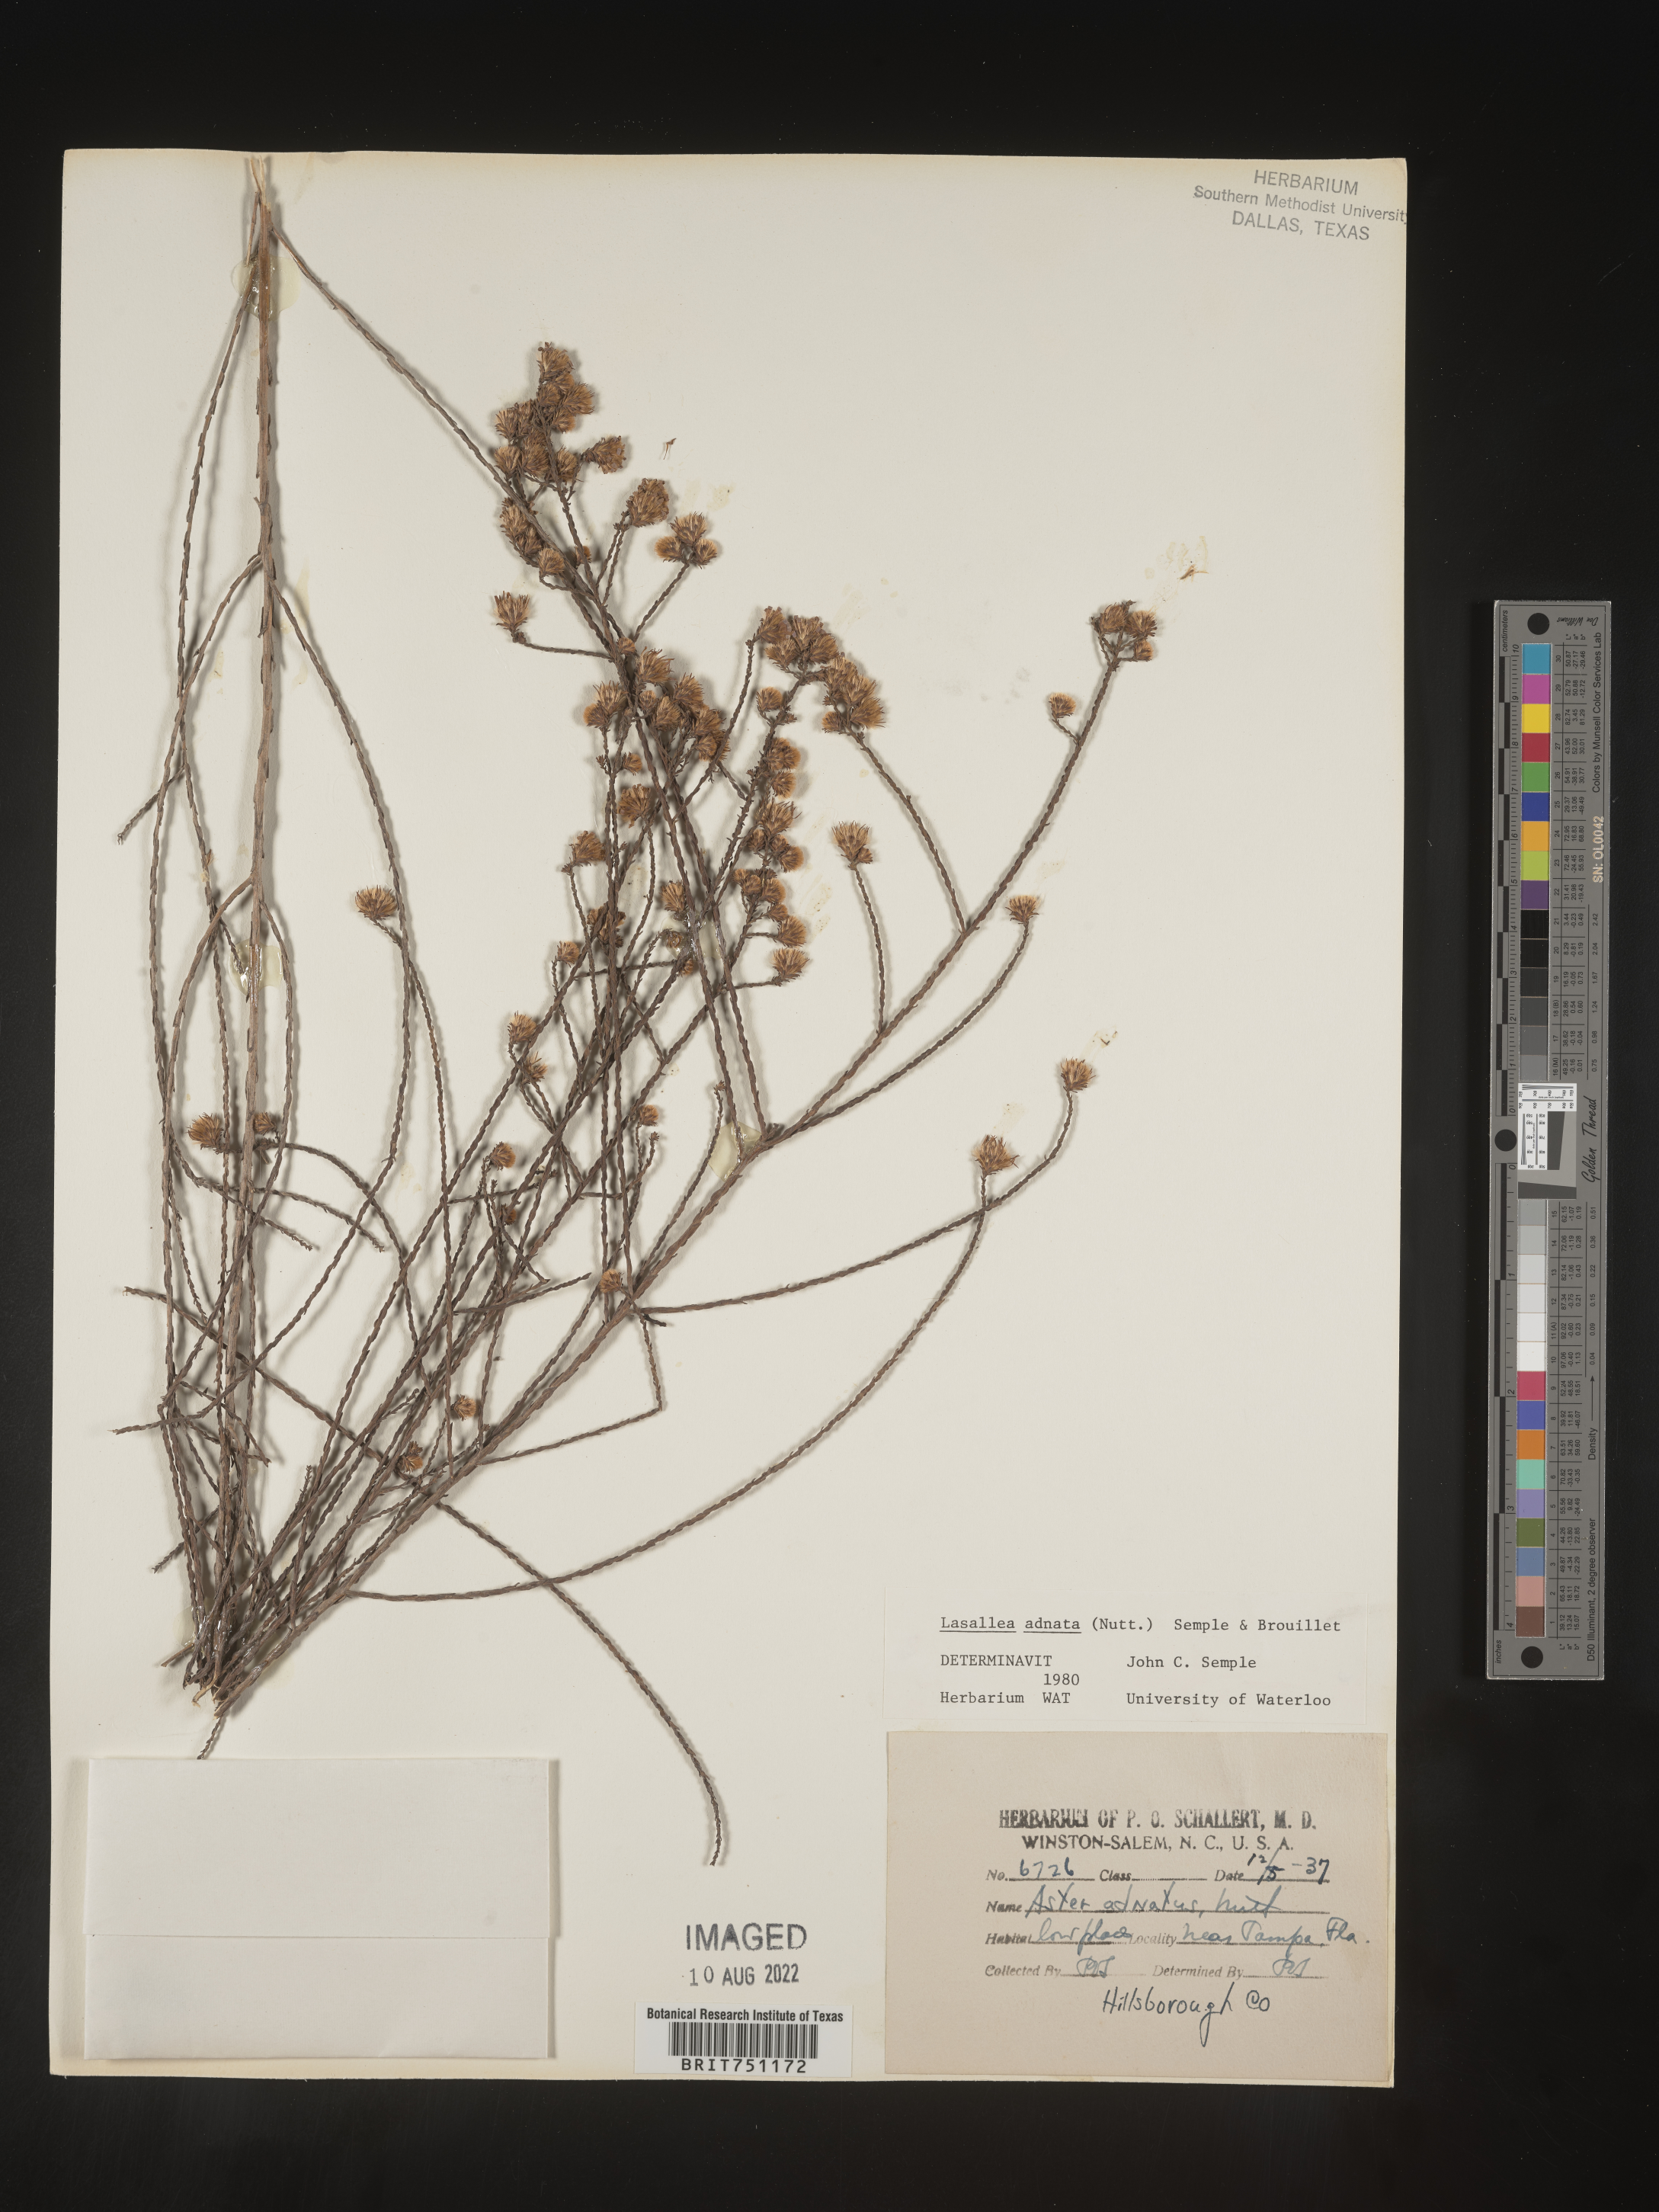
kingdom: Plantae
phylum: Tracheophyta
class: Magnoliopsida
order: Asterales
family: Asteraceae
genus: Symphyotrichum
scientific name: Symphyotrichum adnatum
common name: Scale-leaf aster
